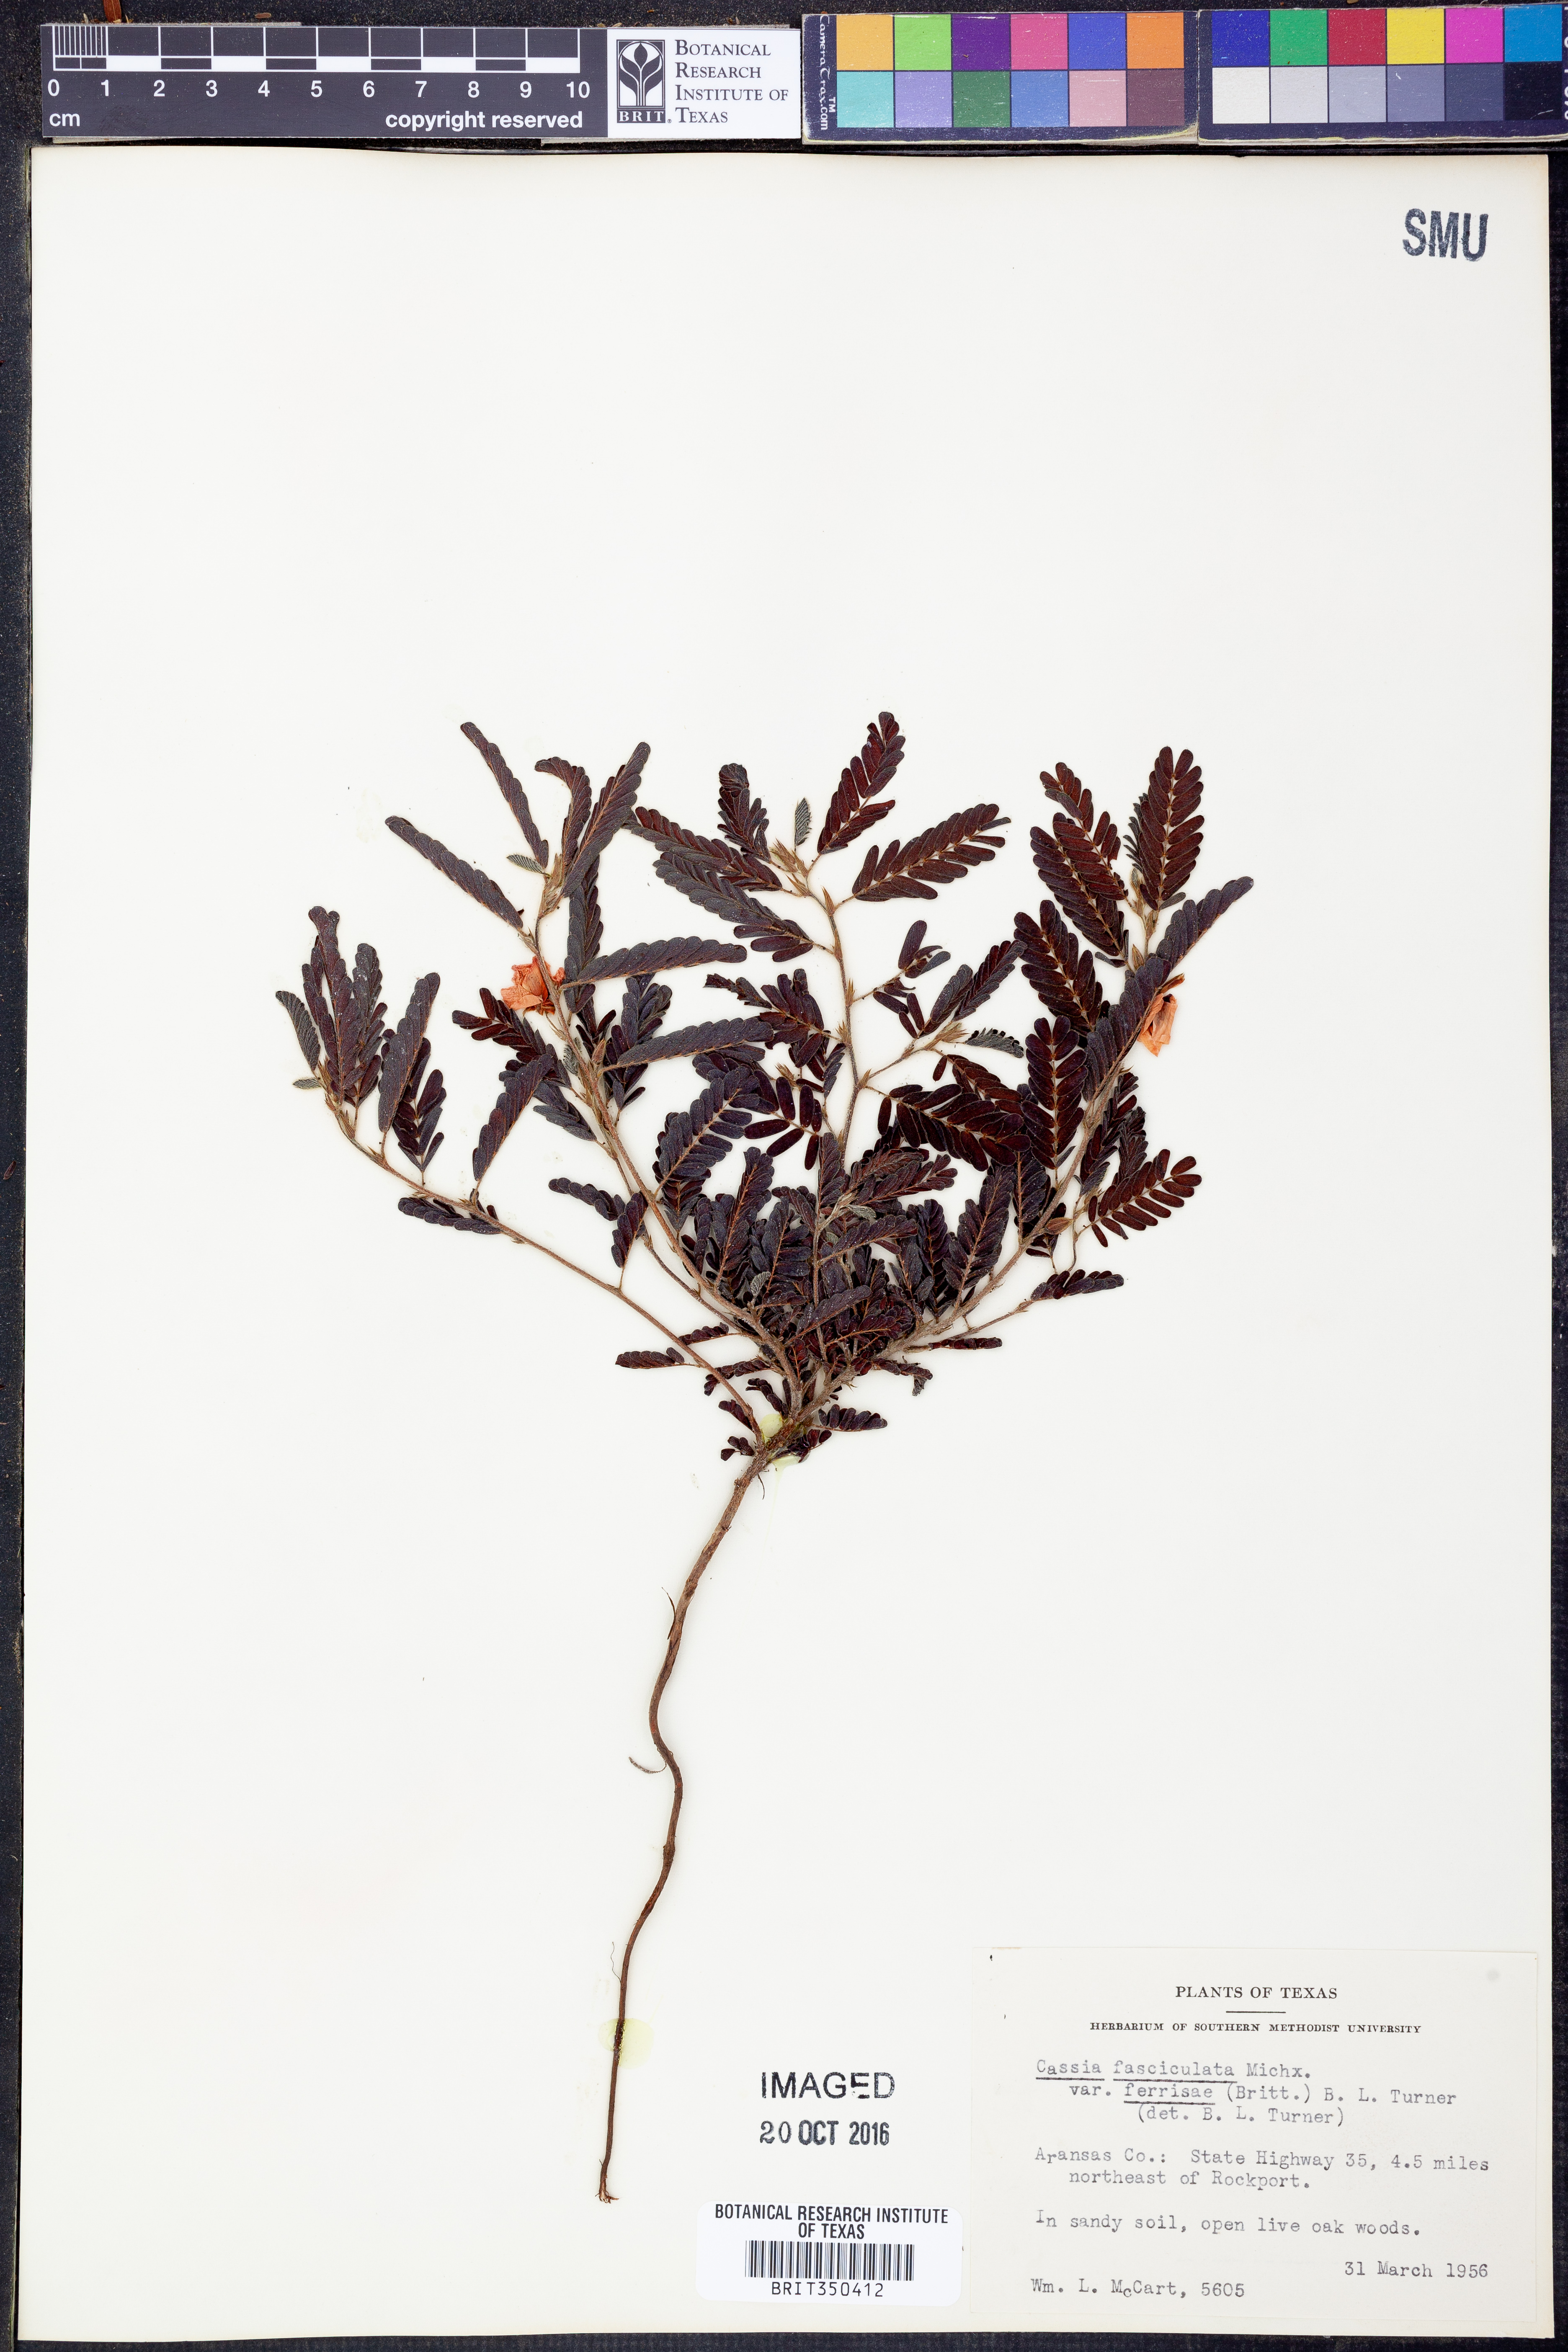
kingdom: Plantae
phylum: Tracheophyta
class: Magnoliopsida
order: Fabales
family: Fabaceae
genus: Chamaecrista
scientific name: Chamaecrista fasciculata
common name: Golden cassia
